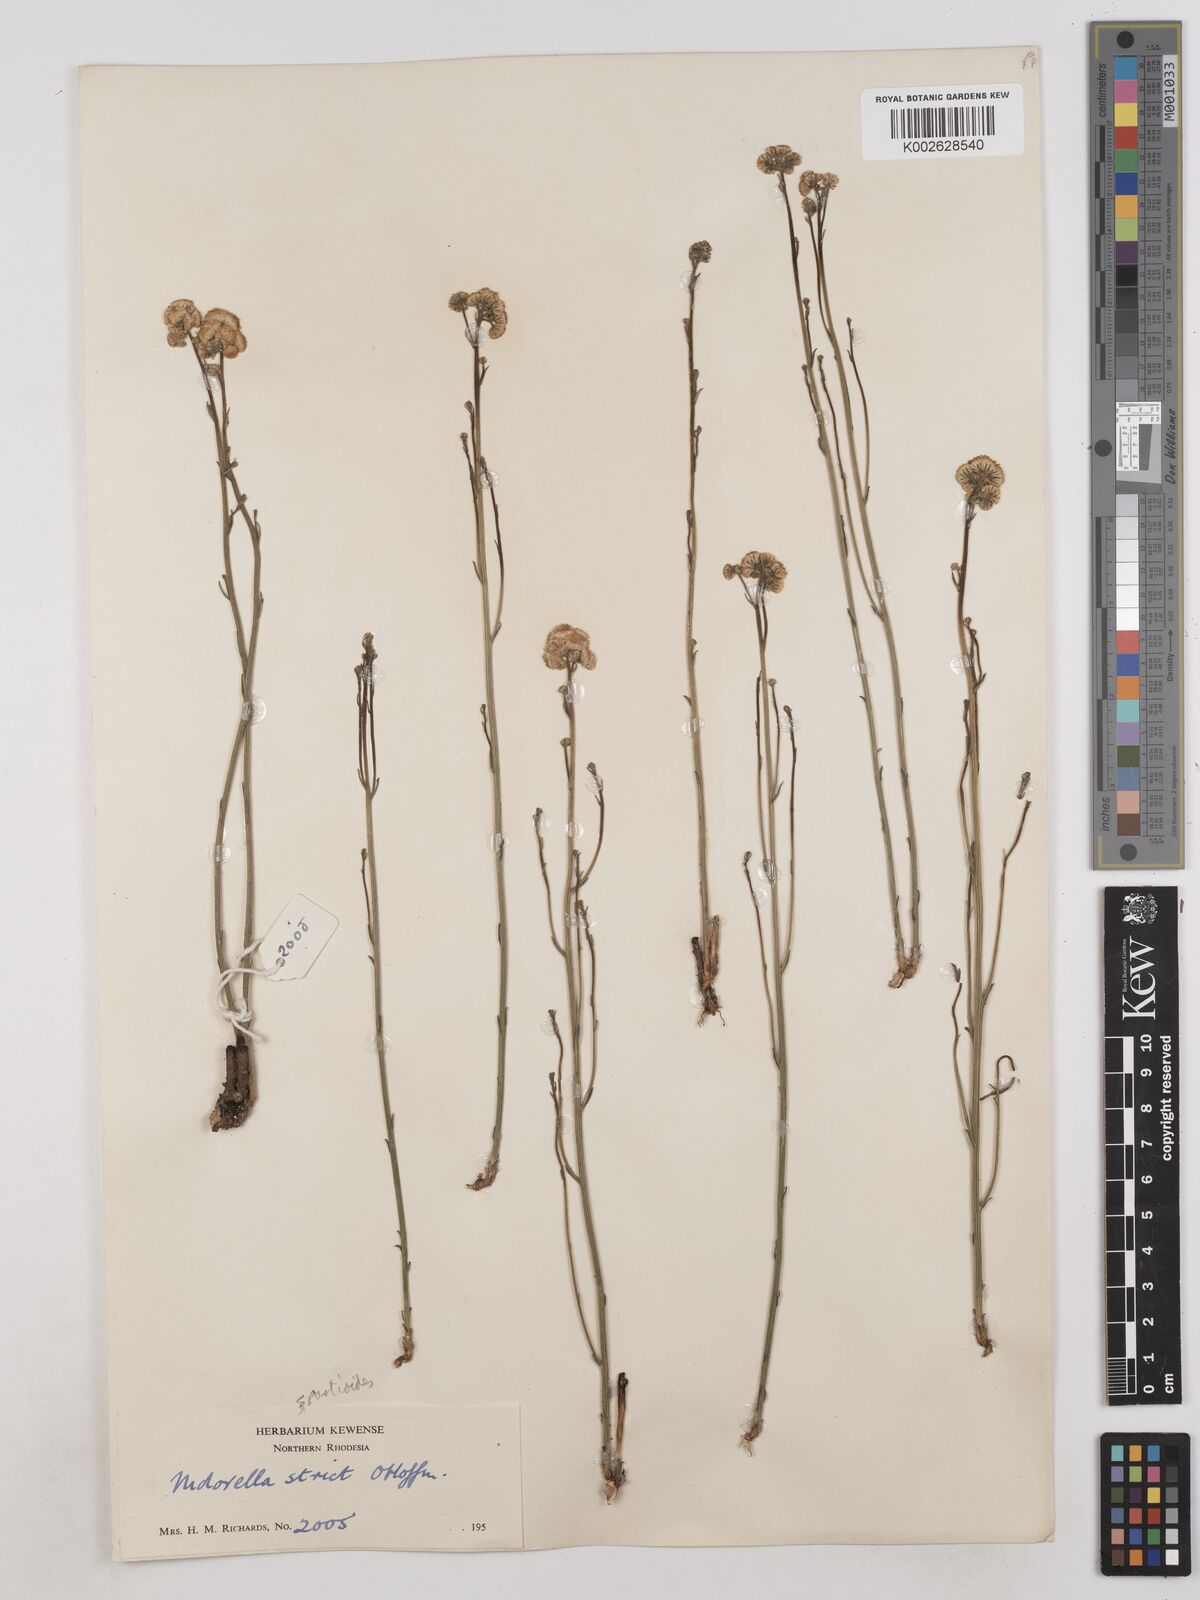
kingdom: Plantae
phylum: Tracheophyta
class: Magnoliopsida
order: Asterales
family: Asteraceae
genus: Nidorella
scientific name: Nidorella spartioides
